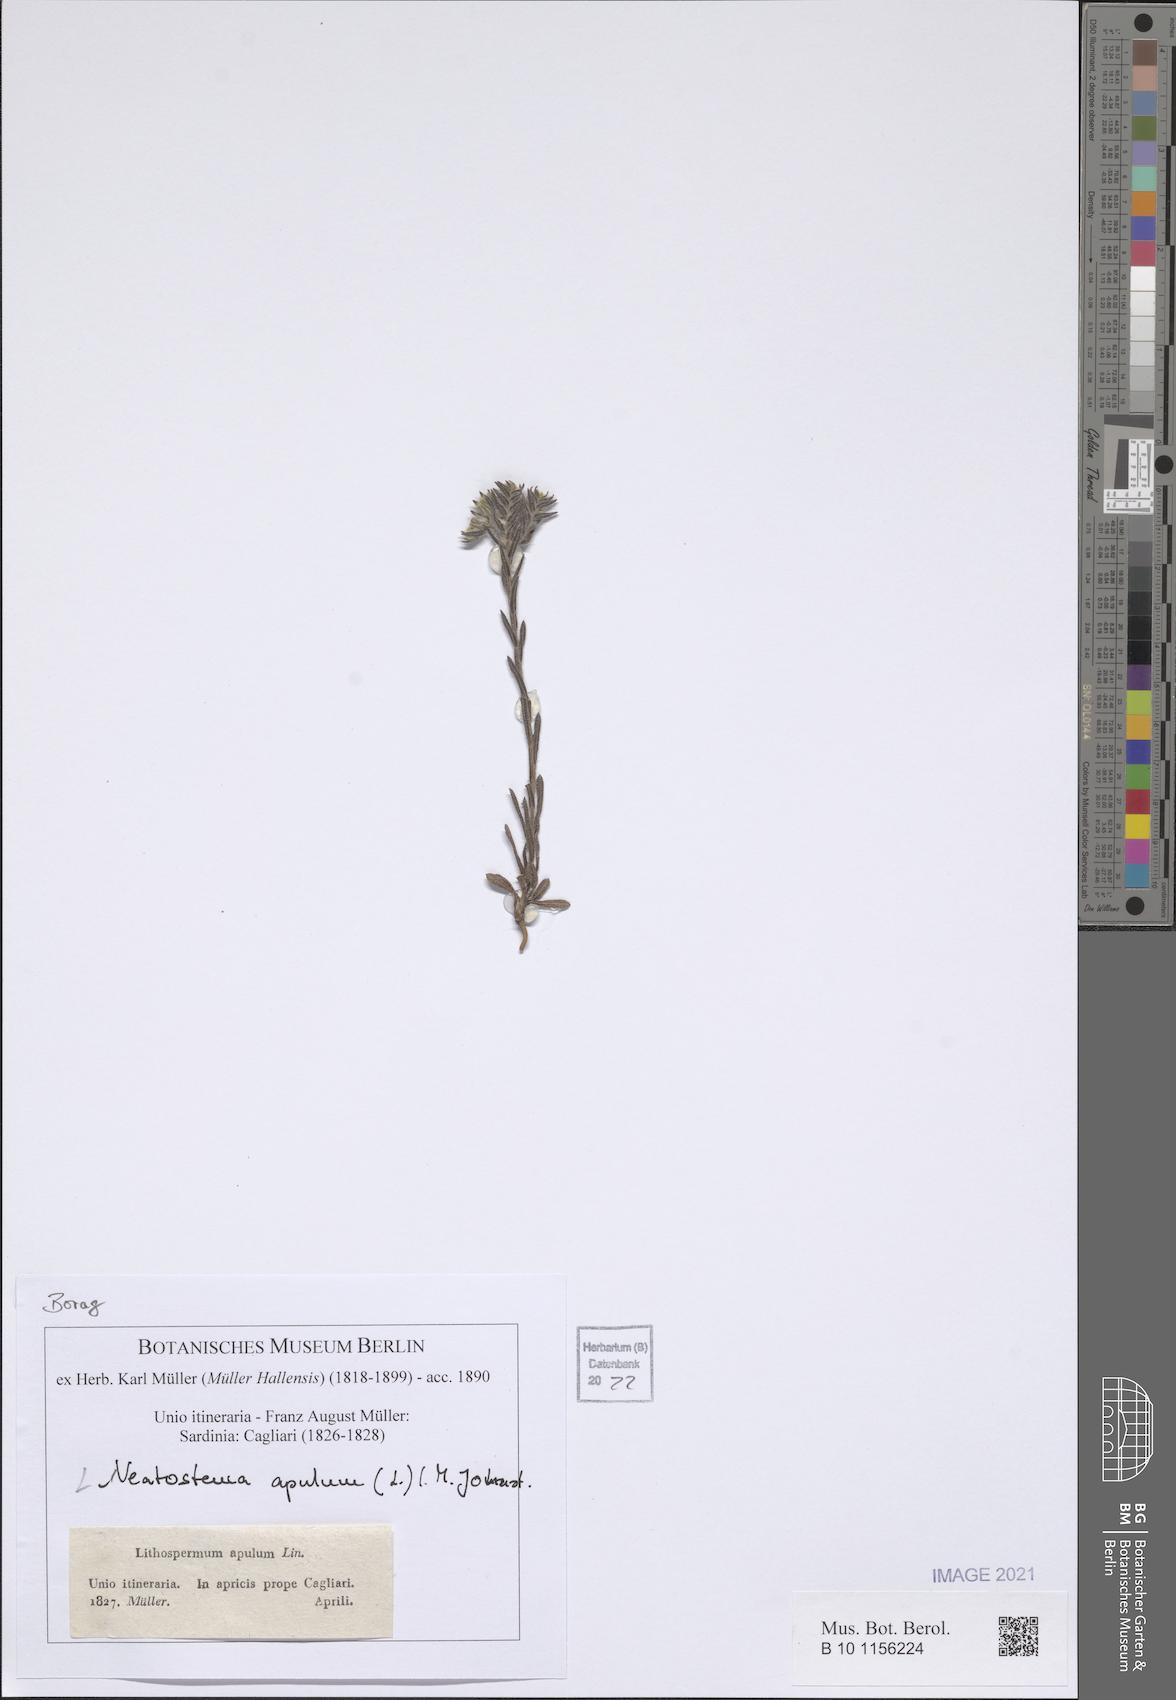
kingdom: Plantae
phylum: Tracheophyta
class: Magnoliopsida
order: Boraginales
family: Boraginaceae
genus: Neatostema
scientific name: Neatostema apulum
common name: Hairy sheepweed
